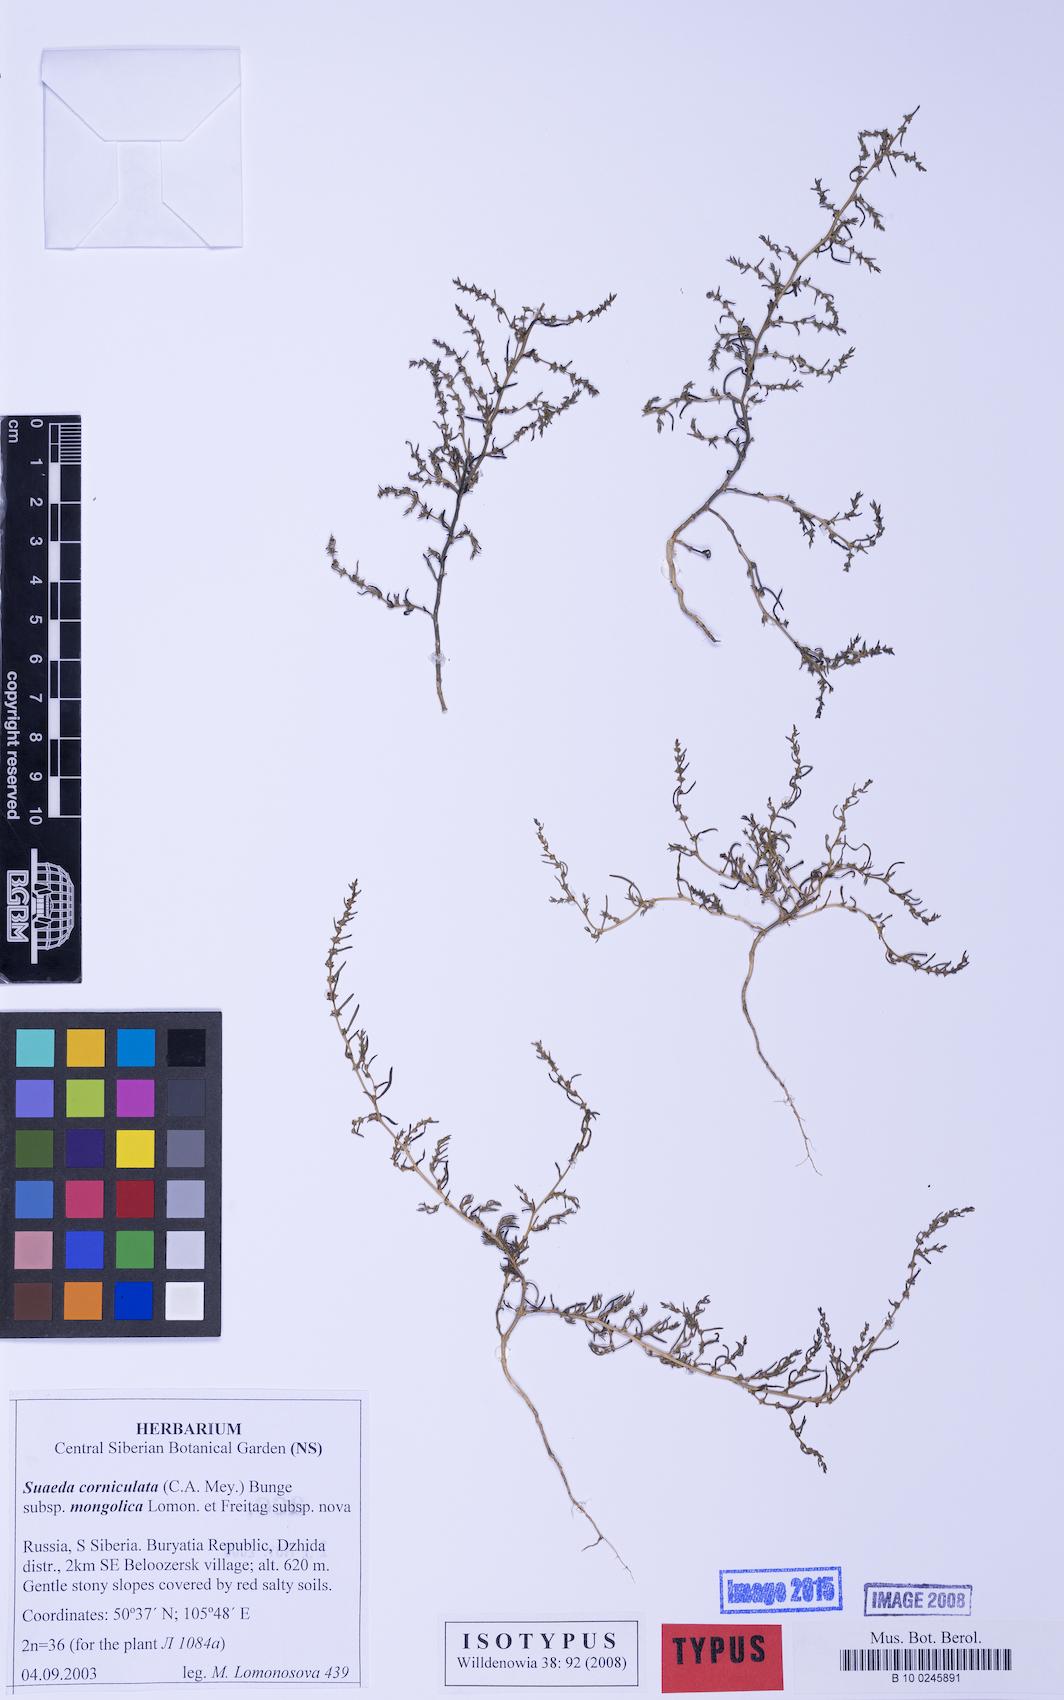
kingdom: Plantae
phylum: Tracheophyta
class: Magnoliopsida
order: Caryophyllales
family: Amaranthaceae
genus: Suaeda
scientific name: Suaeda corniculata
